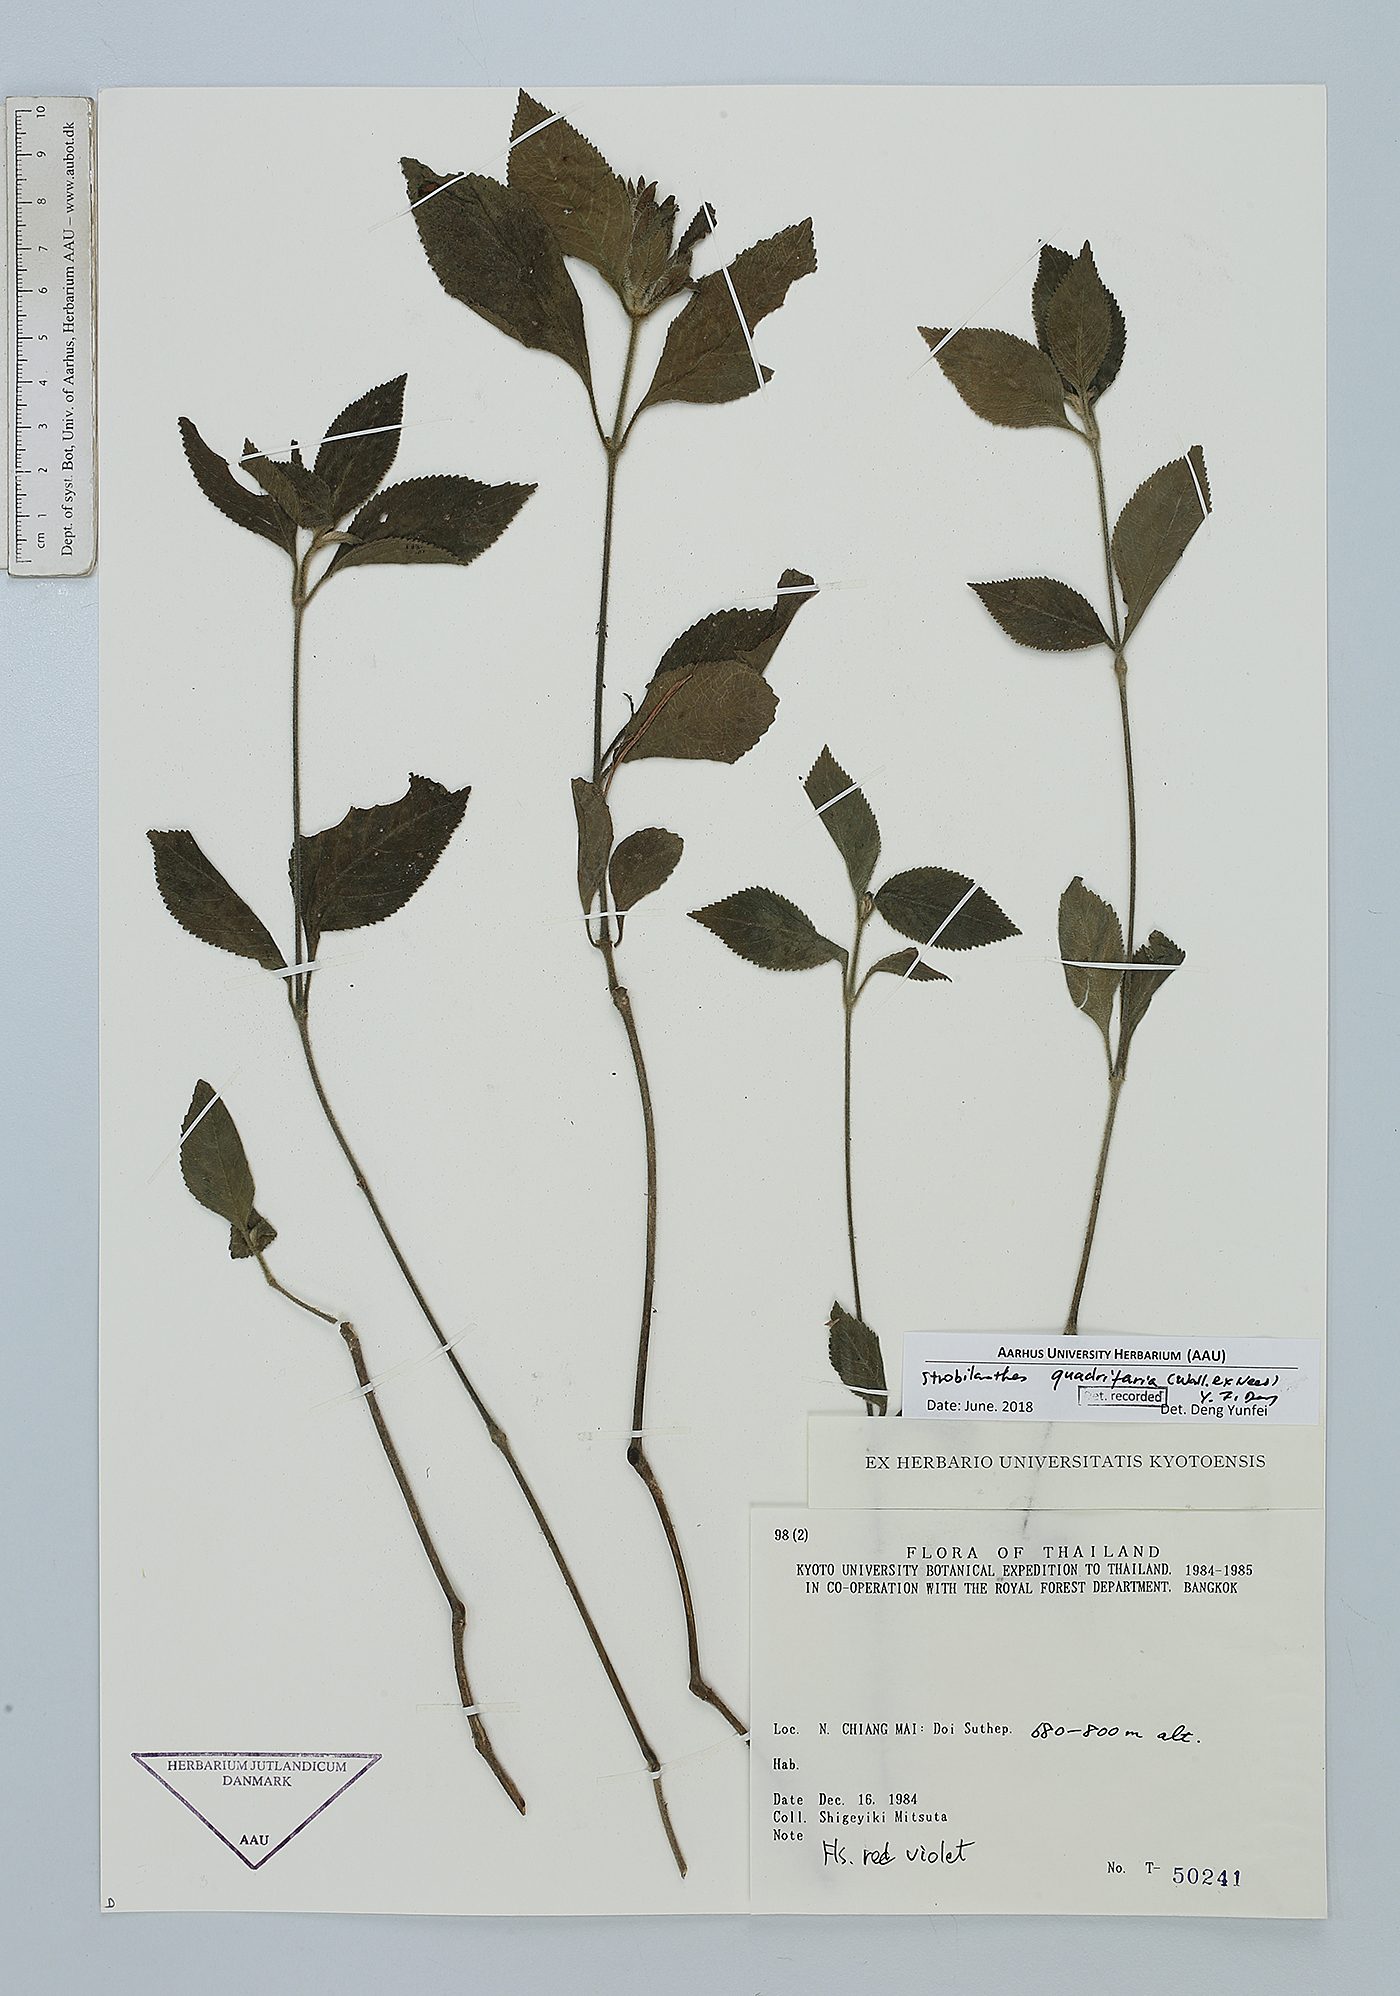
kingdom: Plantae
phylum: Tracheophyta
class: Magnoliopsida
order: Lamiales
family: Acanthaceae
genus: Strobilanthes
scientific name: Strobilanthes quadrifaria
